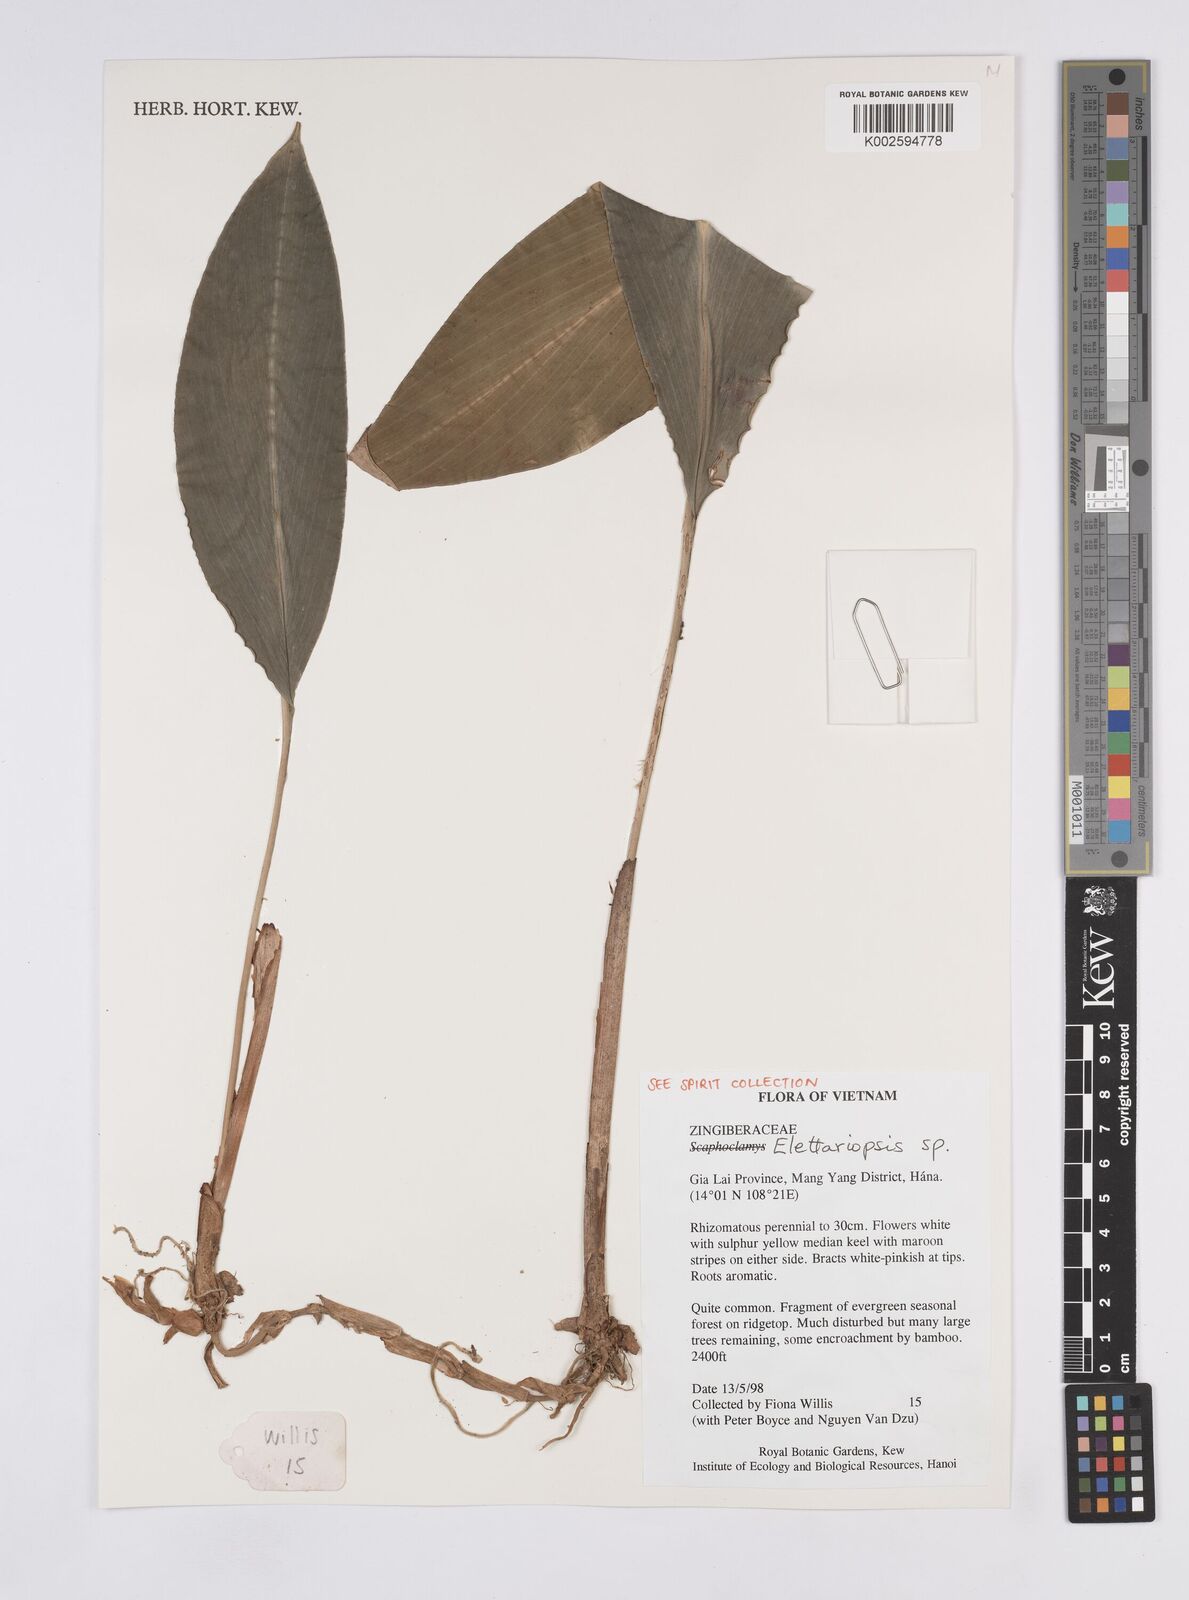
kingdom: Plantae
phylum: Tracheophyta
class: Liliopsida
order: Zingiberales
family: Zingiberaceae
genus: Amomum
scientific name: Amomum
